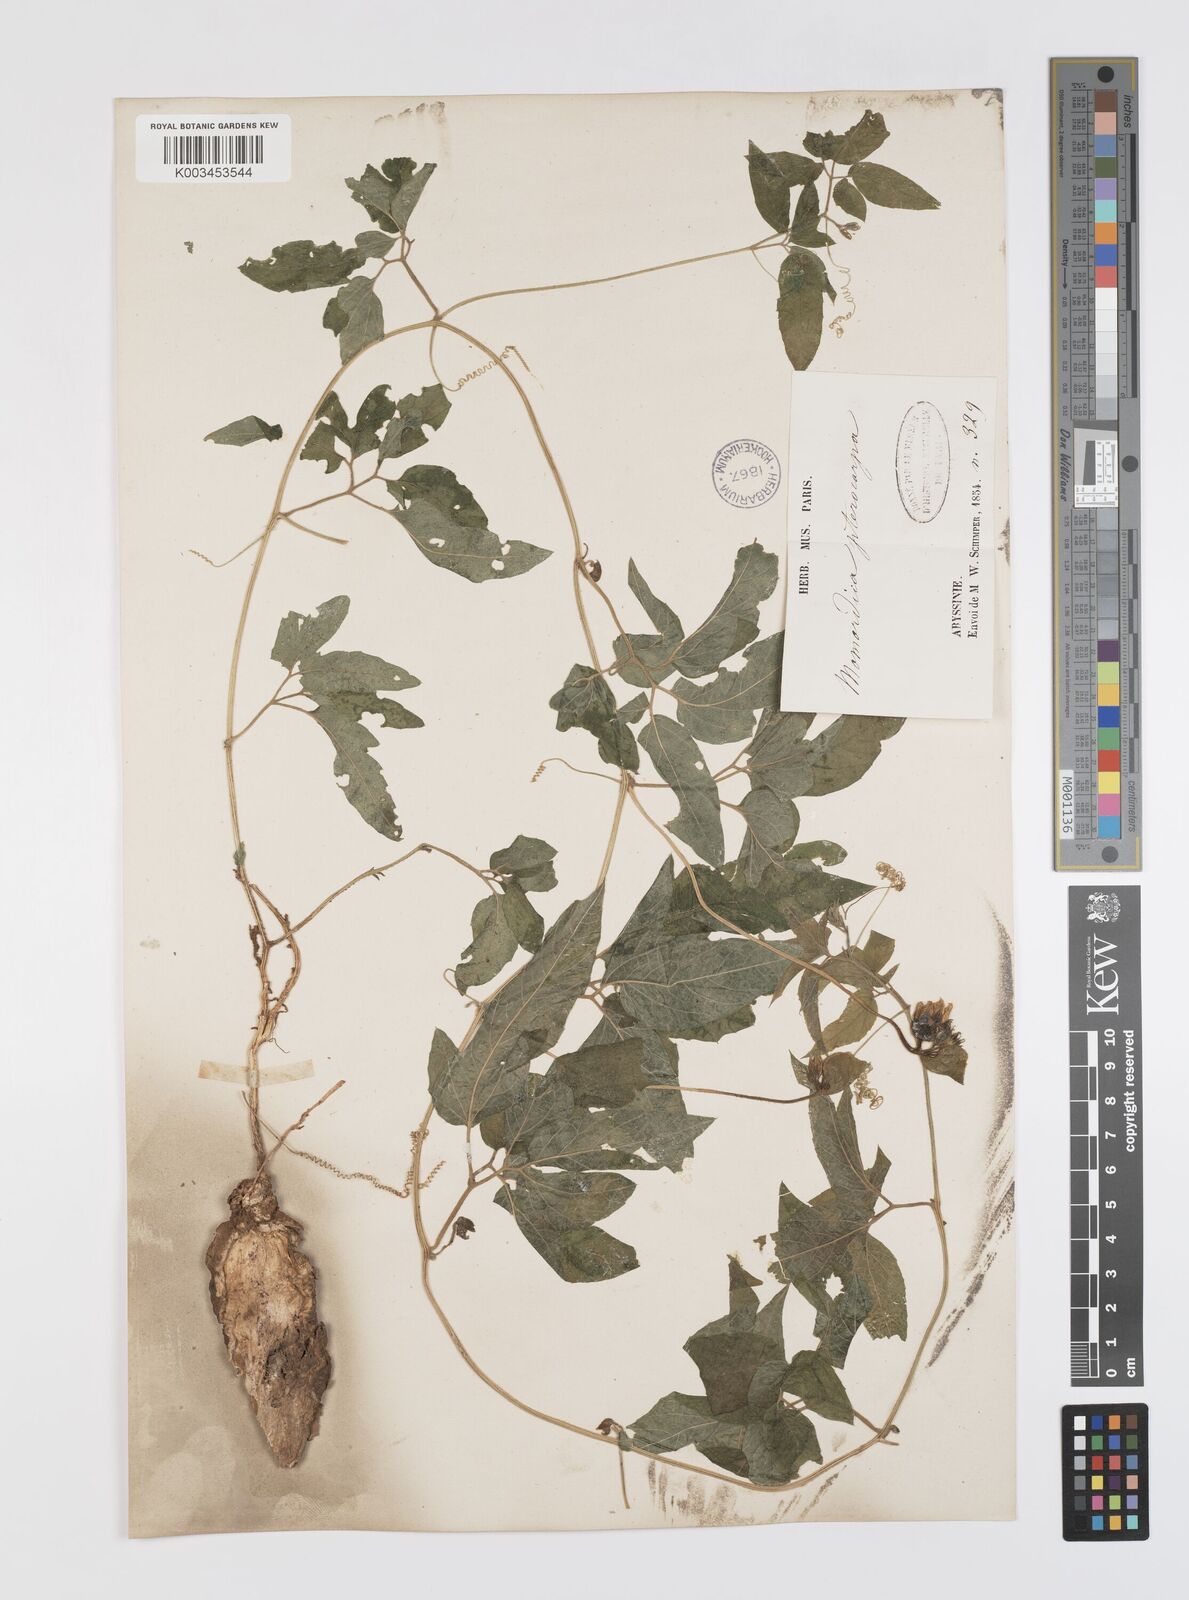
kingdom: Plantae
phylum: Tracheophyta
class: Magnoliopsida
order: Cucurbitales
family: Cucurbitaceae
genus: Momordica
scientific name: Momordica pterocarpa
